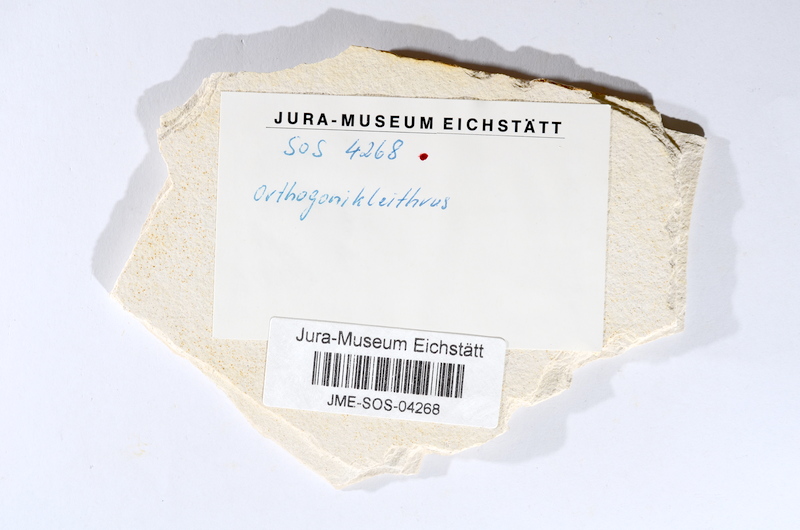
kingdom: Animalia
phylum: Chordata
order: Salmoniformes
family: Orthogonikleithridae
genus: Orthogonikleithrus
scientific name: Orthogonikleithrus hoelli
